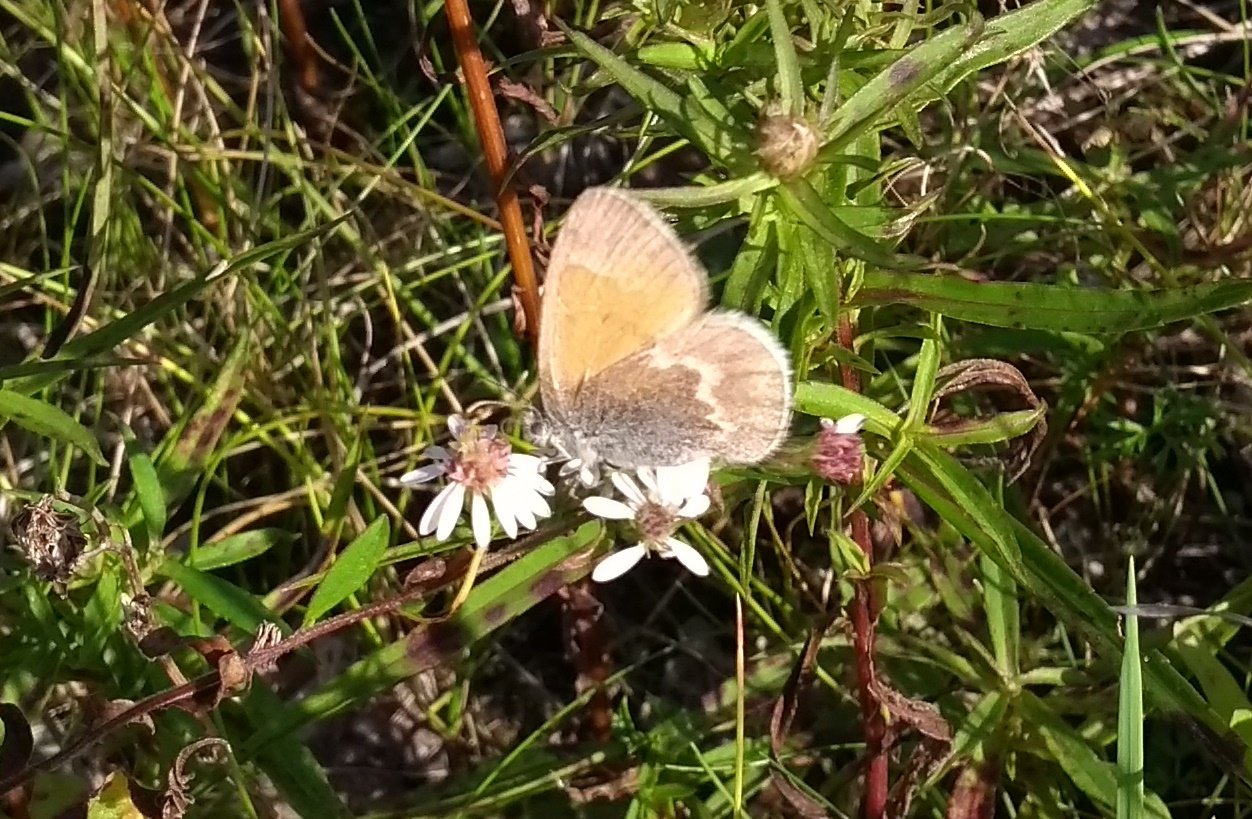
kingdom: Animalia
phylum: Arthropoda
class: Insecta
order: Lepidoptera
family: Nymphalidae
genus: Coenonympha
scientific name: Coenonympha tullia
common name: Large Heath
